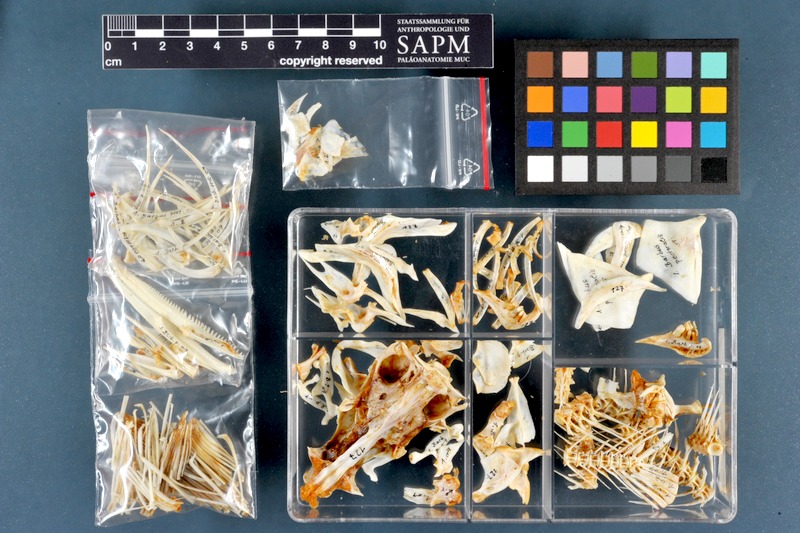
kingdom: Animalia
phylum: Chordata
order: Cypriniformes
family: Cyprinidae
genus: Luciobarbus
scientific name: Luciobarbus pectoralis
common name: Levantine barbel
